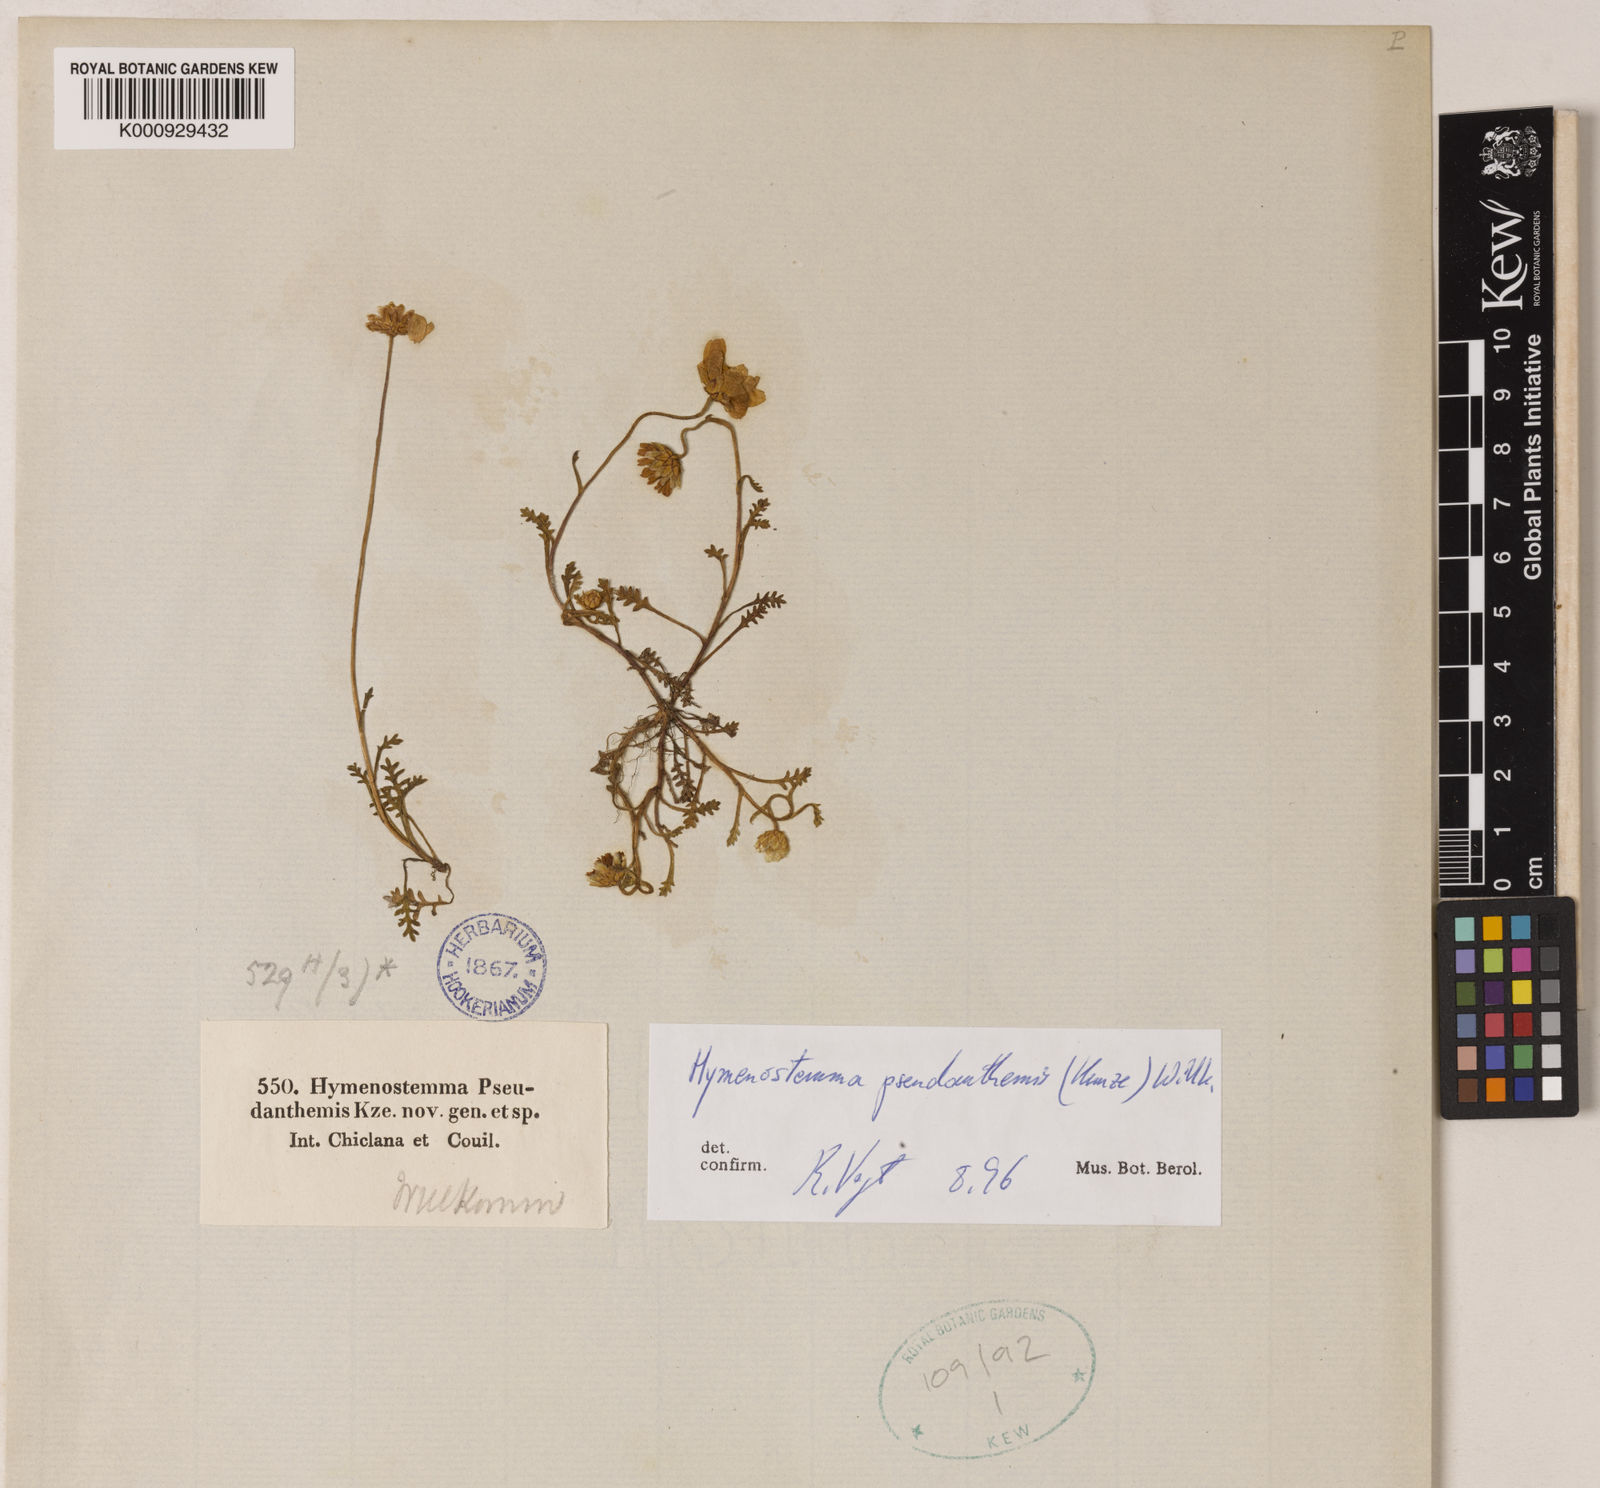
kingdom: Plantae
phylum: Tracheophyta
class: Magnoliopsida
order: Asterales
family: Asteraceae
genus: Hymenostemma
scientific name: Hymenostemma pseudanthemis
